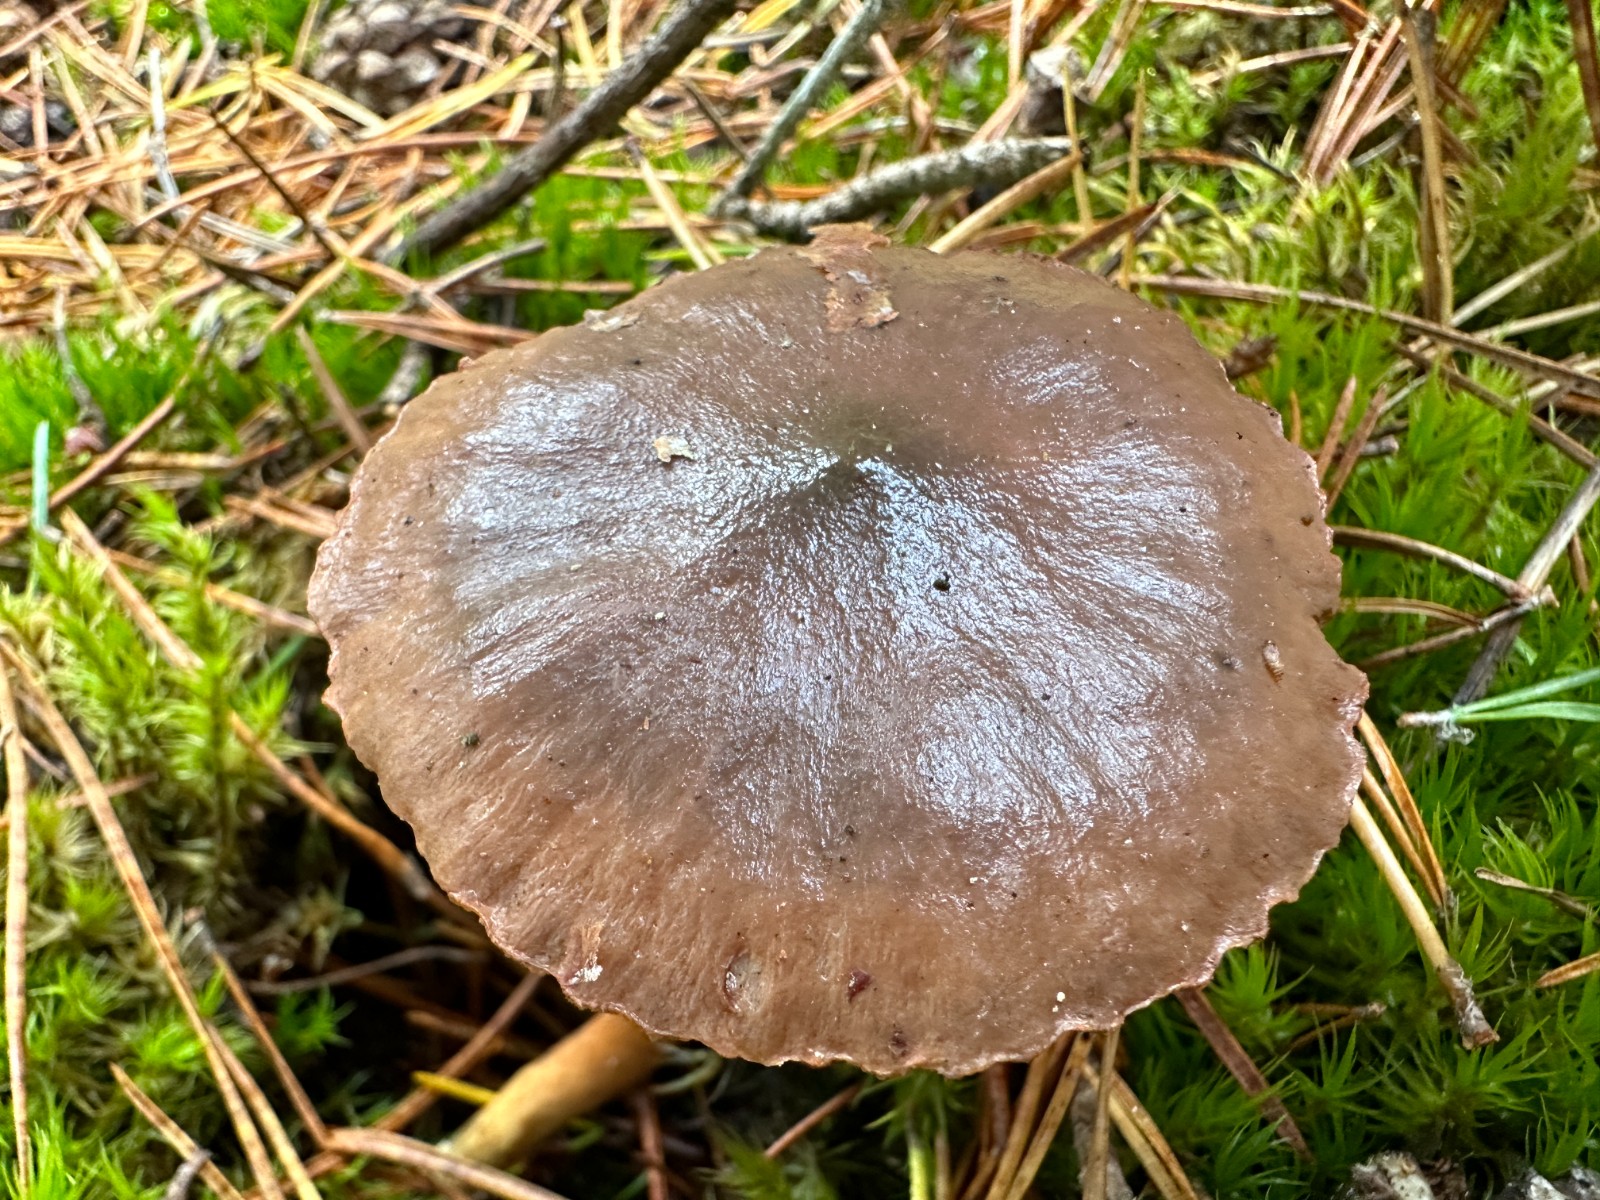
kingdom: Fungi
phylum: Basidiomycota
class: Agaricomycetes
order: Boletales
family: Gomphidiaceae
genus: Chroogomphus
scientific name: Chroogomphus rutilus
